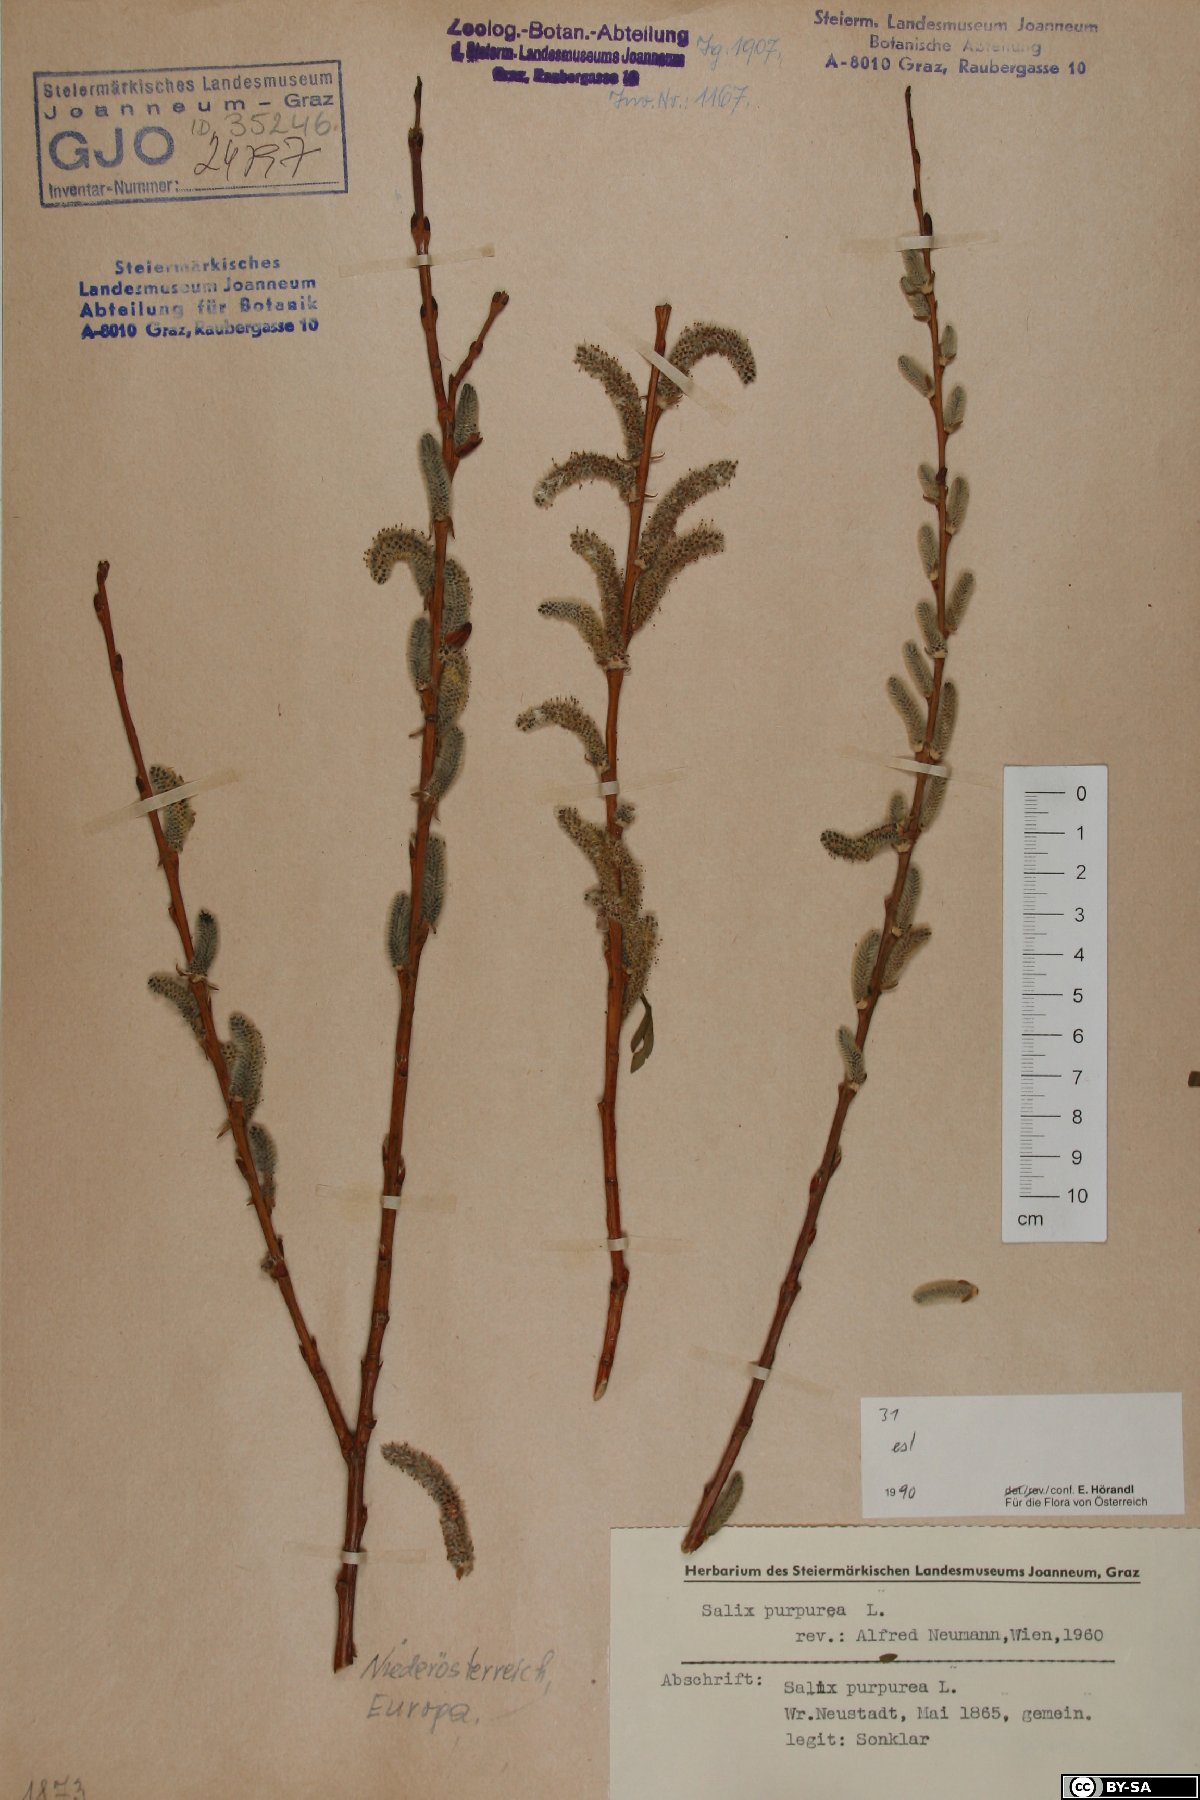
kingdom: Plantae
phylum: Tracheophyta
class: Magnoliopsida
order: Malpighiales
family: Salicaceae
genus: Salix
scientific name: Salix purpurea
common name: Purple willow
